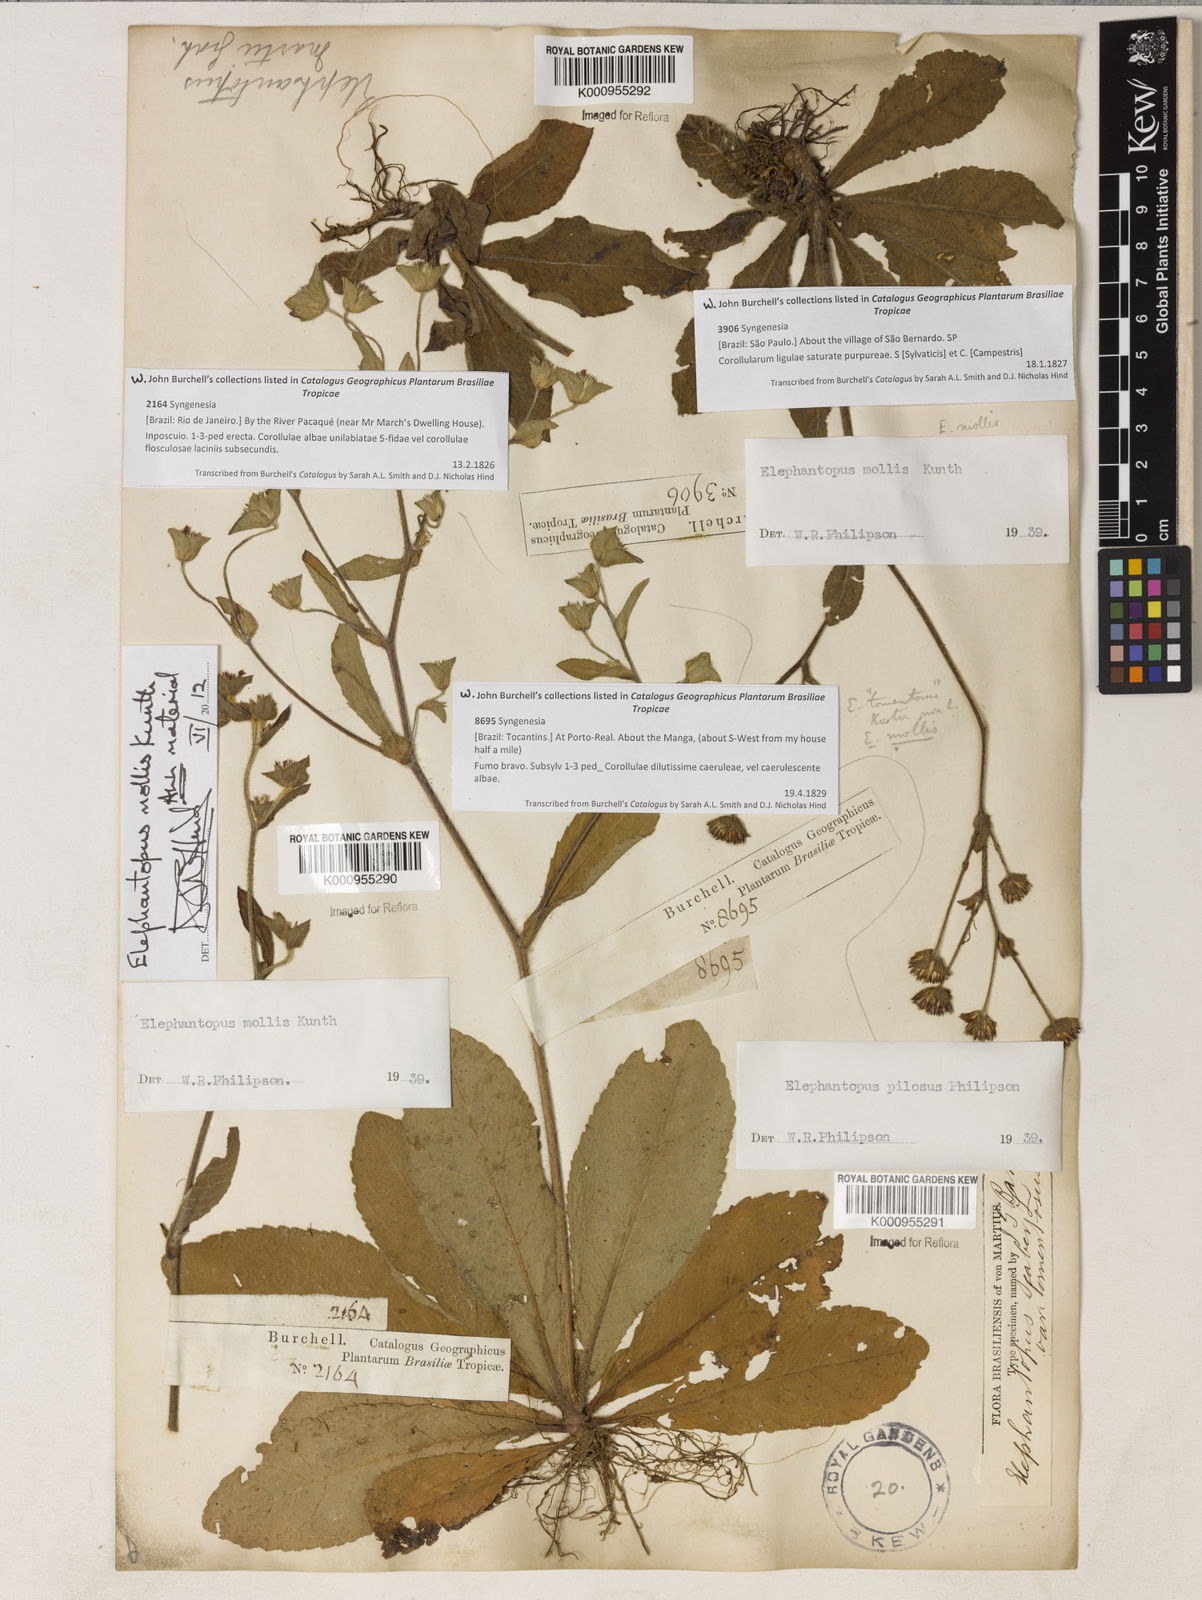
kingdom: Plantae
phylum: Tracheophyta
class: Magnoliopsida
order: Asterales
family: Asteraceae
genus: Elephantopus
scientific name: Elephantopus mollis
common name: Soft elephantsfoot
